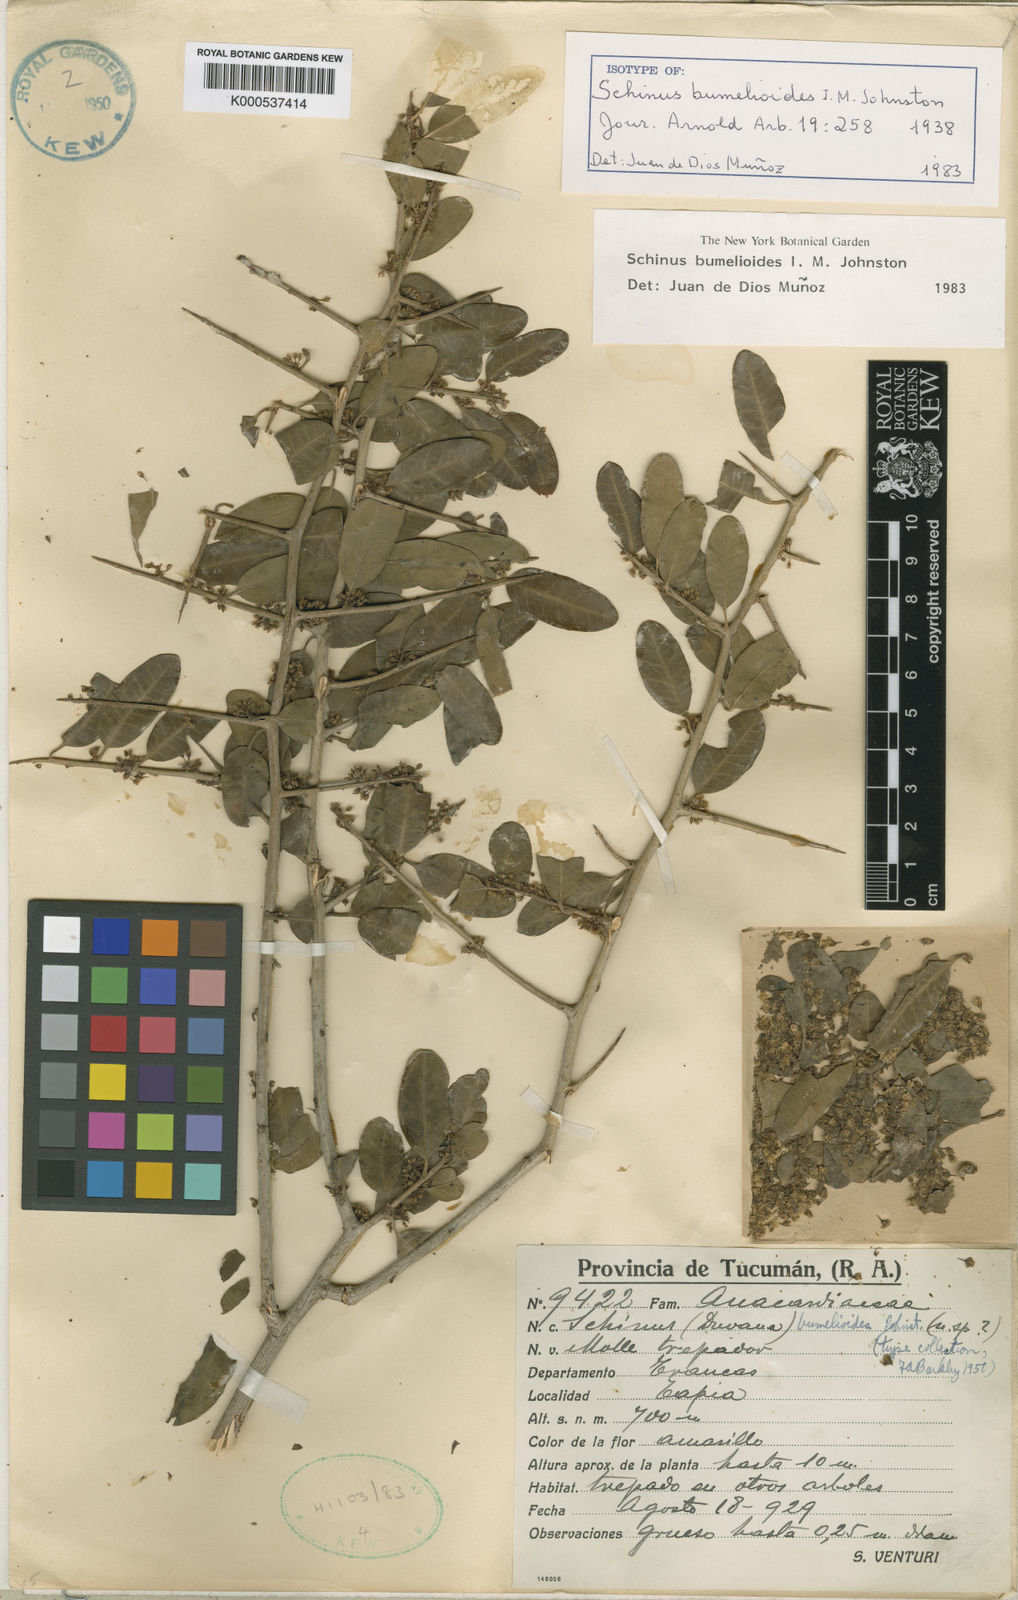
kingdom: Plantae
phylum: Tracheophyta
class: Magnoliopsida
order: Sapindales
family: Anacardiaceae
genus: Schinus
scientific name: Schinus bumelioides
